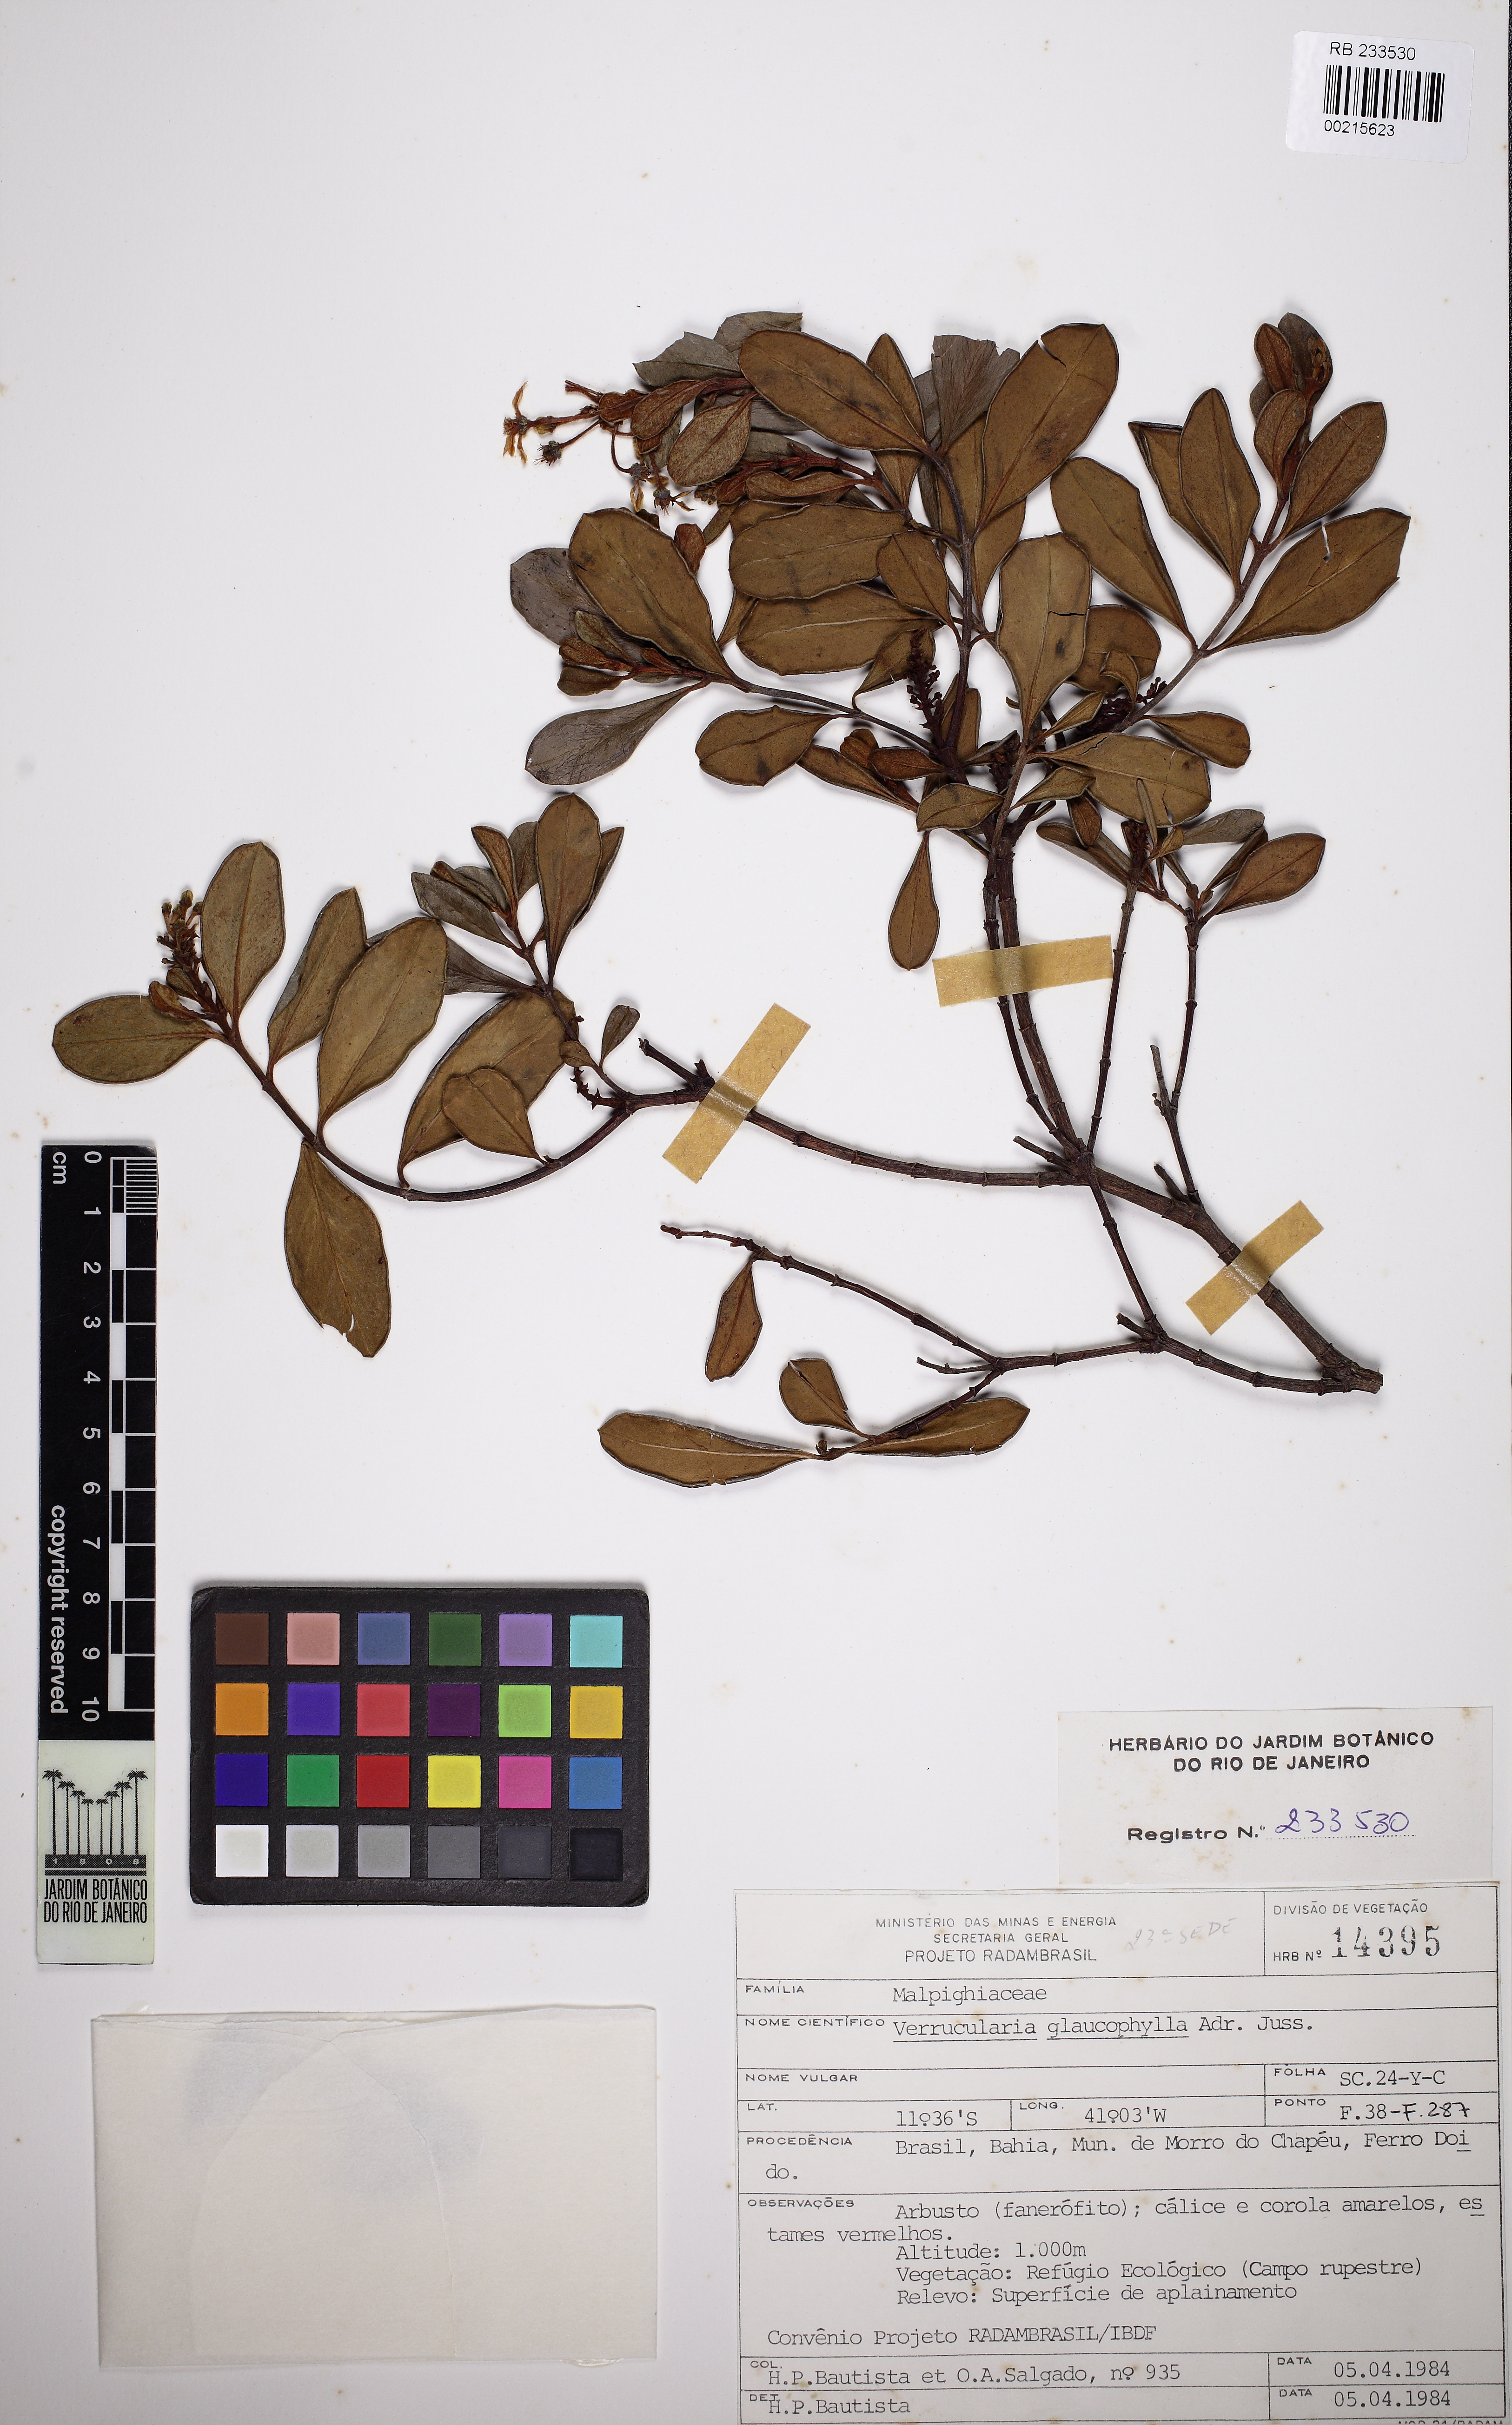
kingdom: Plantae
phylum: Tracheophyta
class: Magnoliopsida
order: Malpighiales
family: Malpighiaceae
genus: Verrucularina
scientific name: Verrucularina glaucophylla
